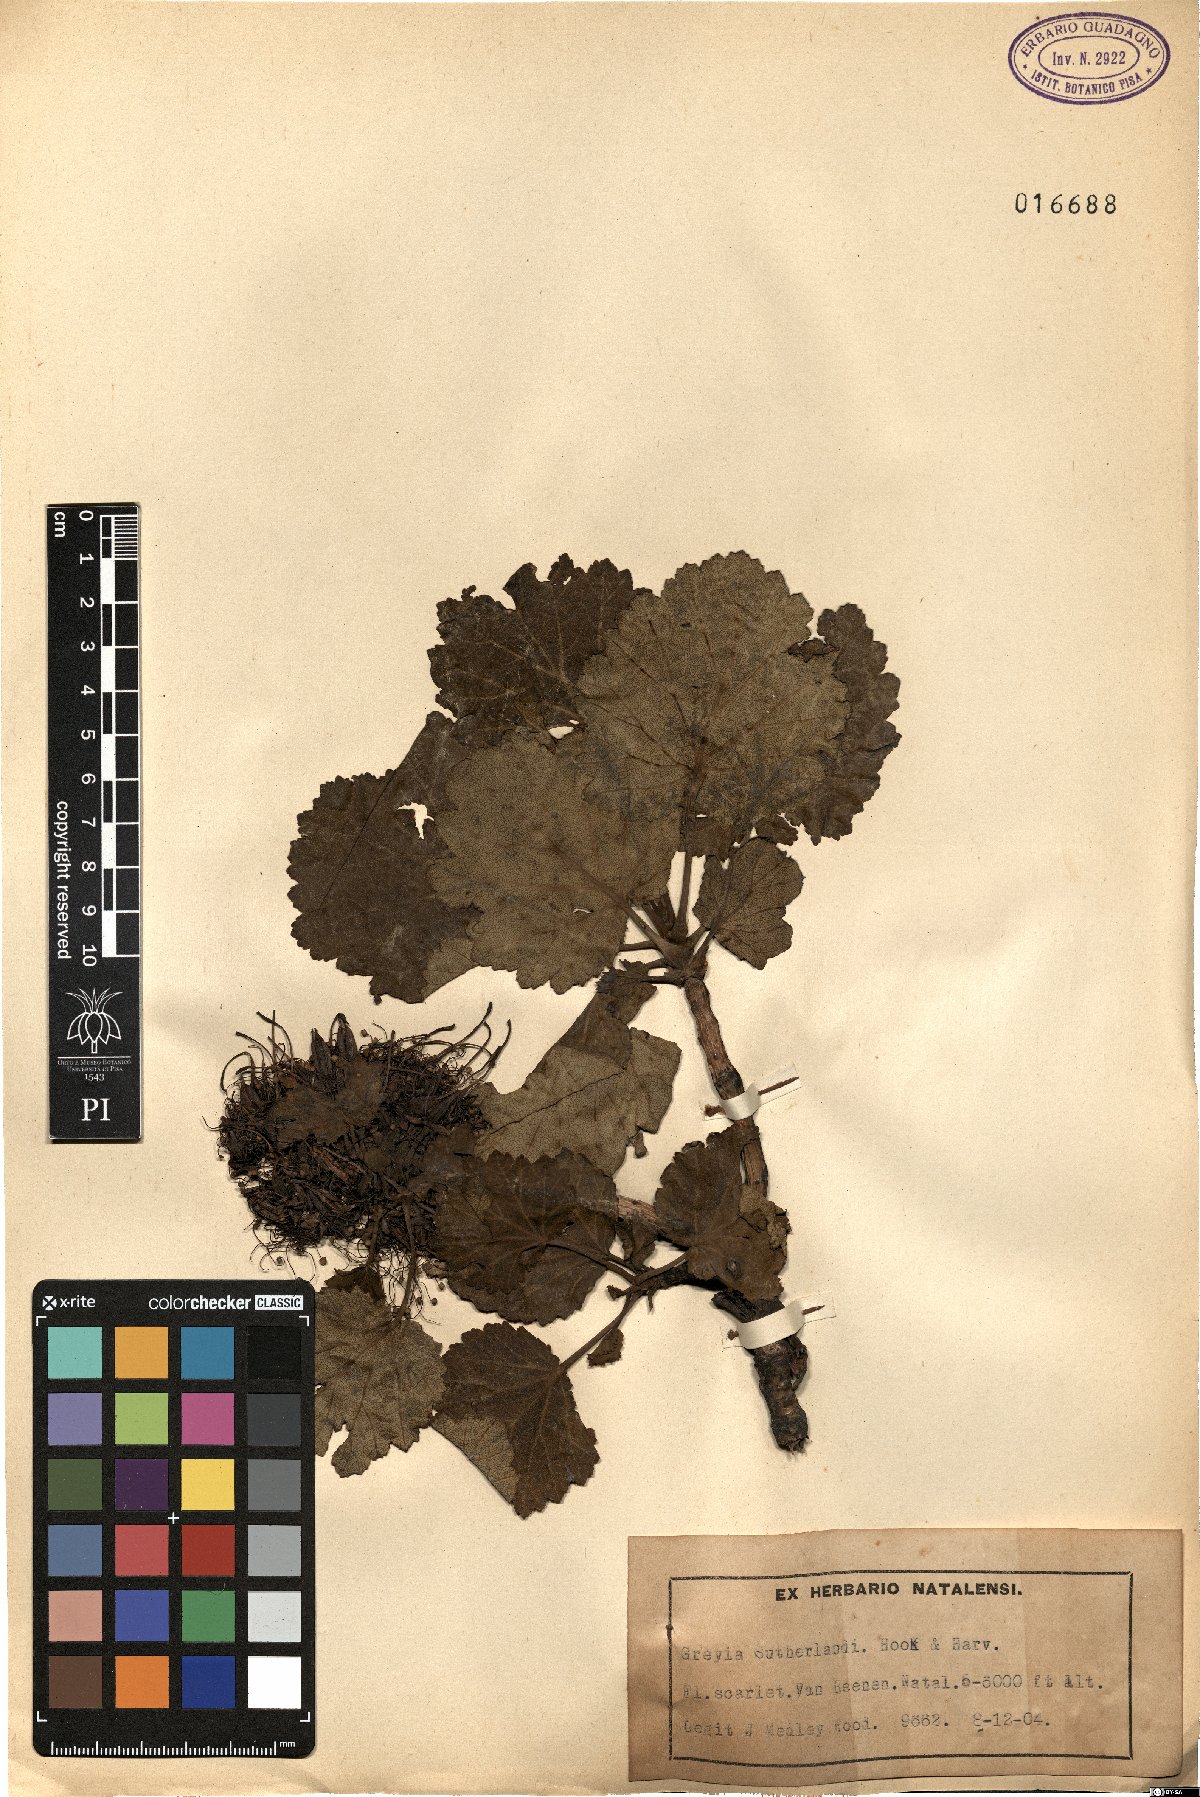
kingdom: Plantae
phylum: Tracheophyta
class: Magnoliopsida
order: Geraniales
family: Francoaceae
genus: Greyia
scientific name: Greyia sutherlandii
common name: Glossy bottlebrush
